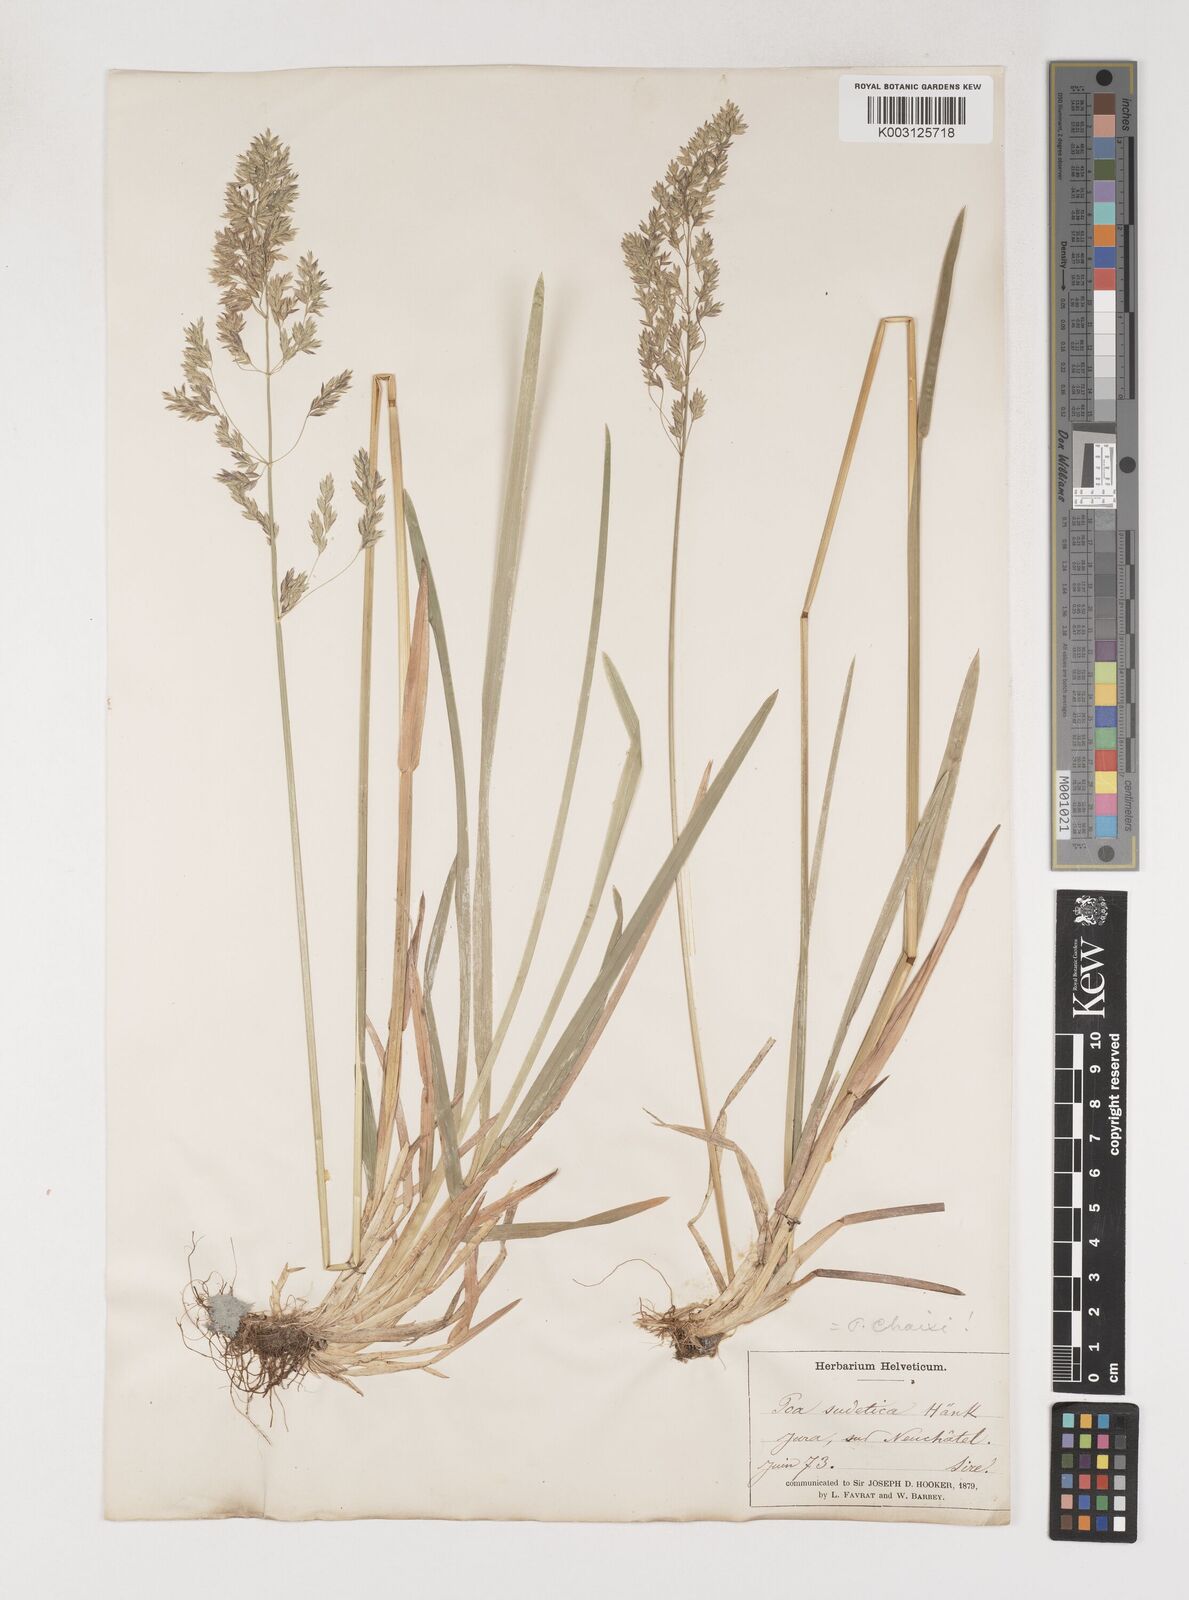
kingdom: Plantae
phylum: Tracheophyta
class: Liliopsida
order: Poales
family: Poaceae
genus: Poa
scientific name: Poa chaixii
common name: Broad-leaved meadow-grass
